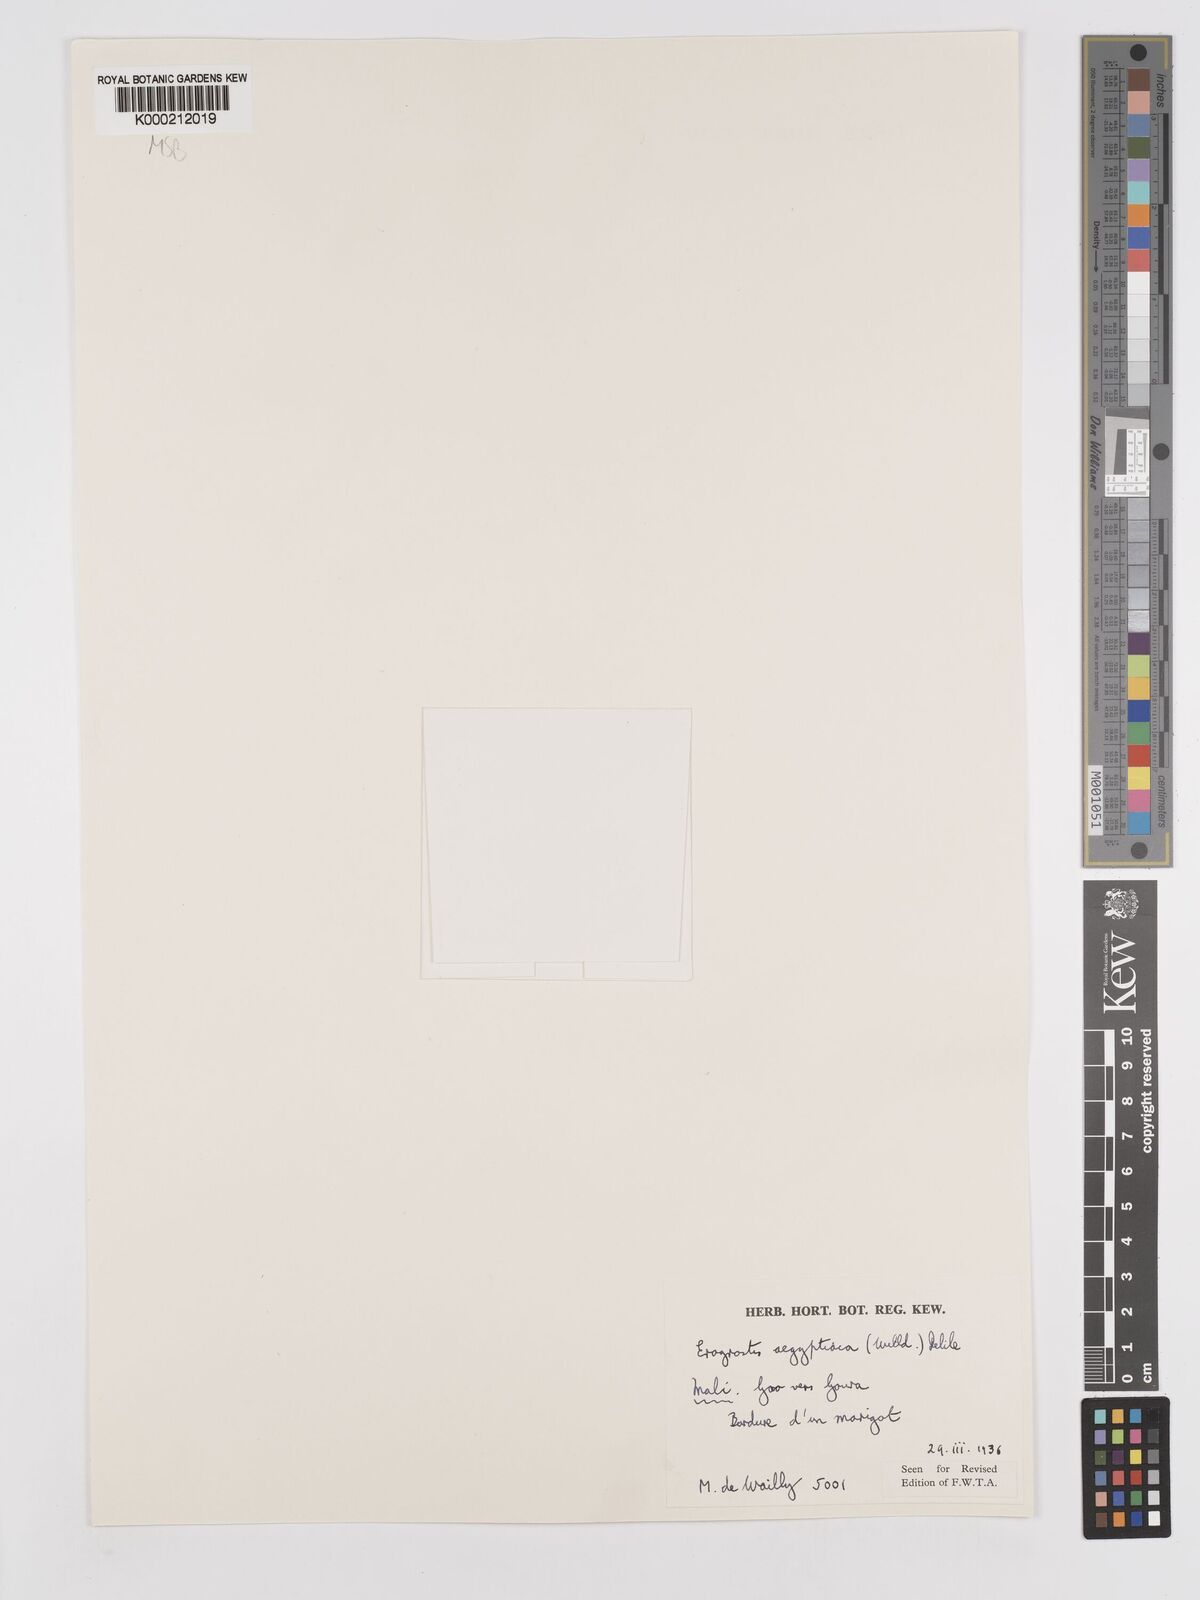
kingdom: Plantae
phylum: Tracheophyta
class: Liliopsida
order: Poales
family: Poaceae
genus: Eragrostis
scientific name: Eragrostis aegyptiaca
